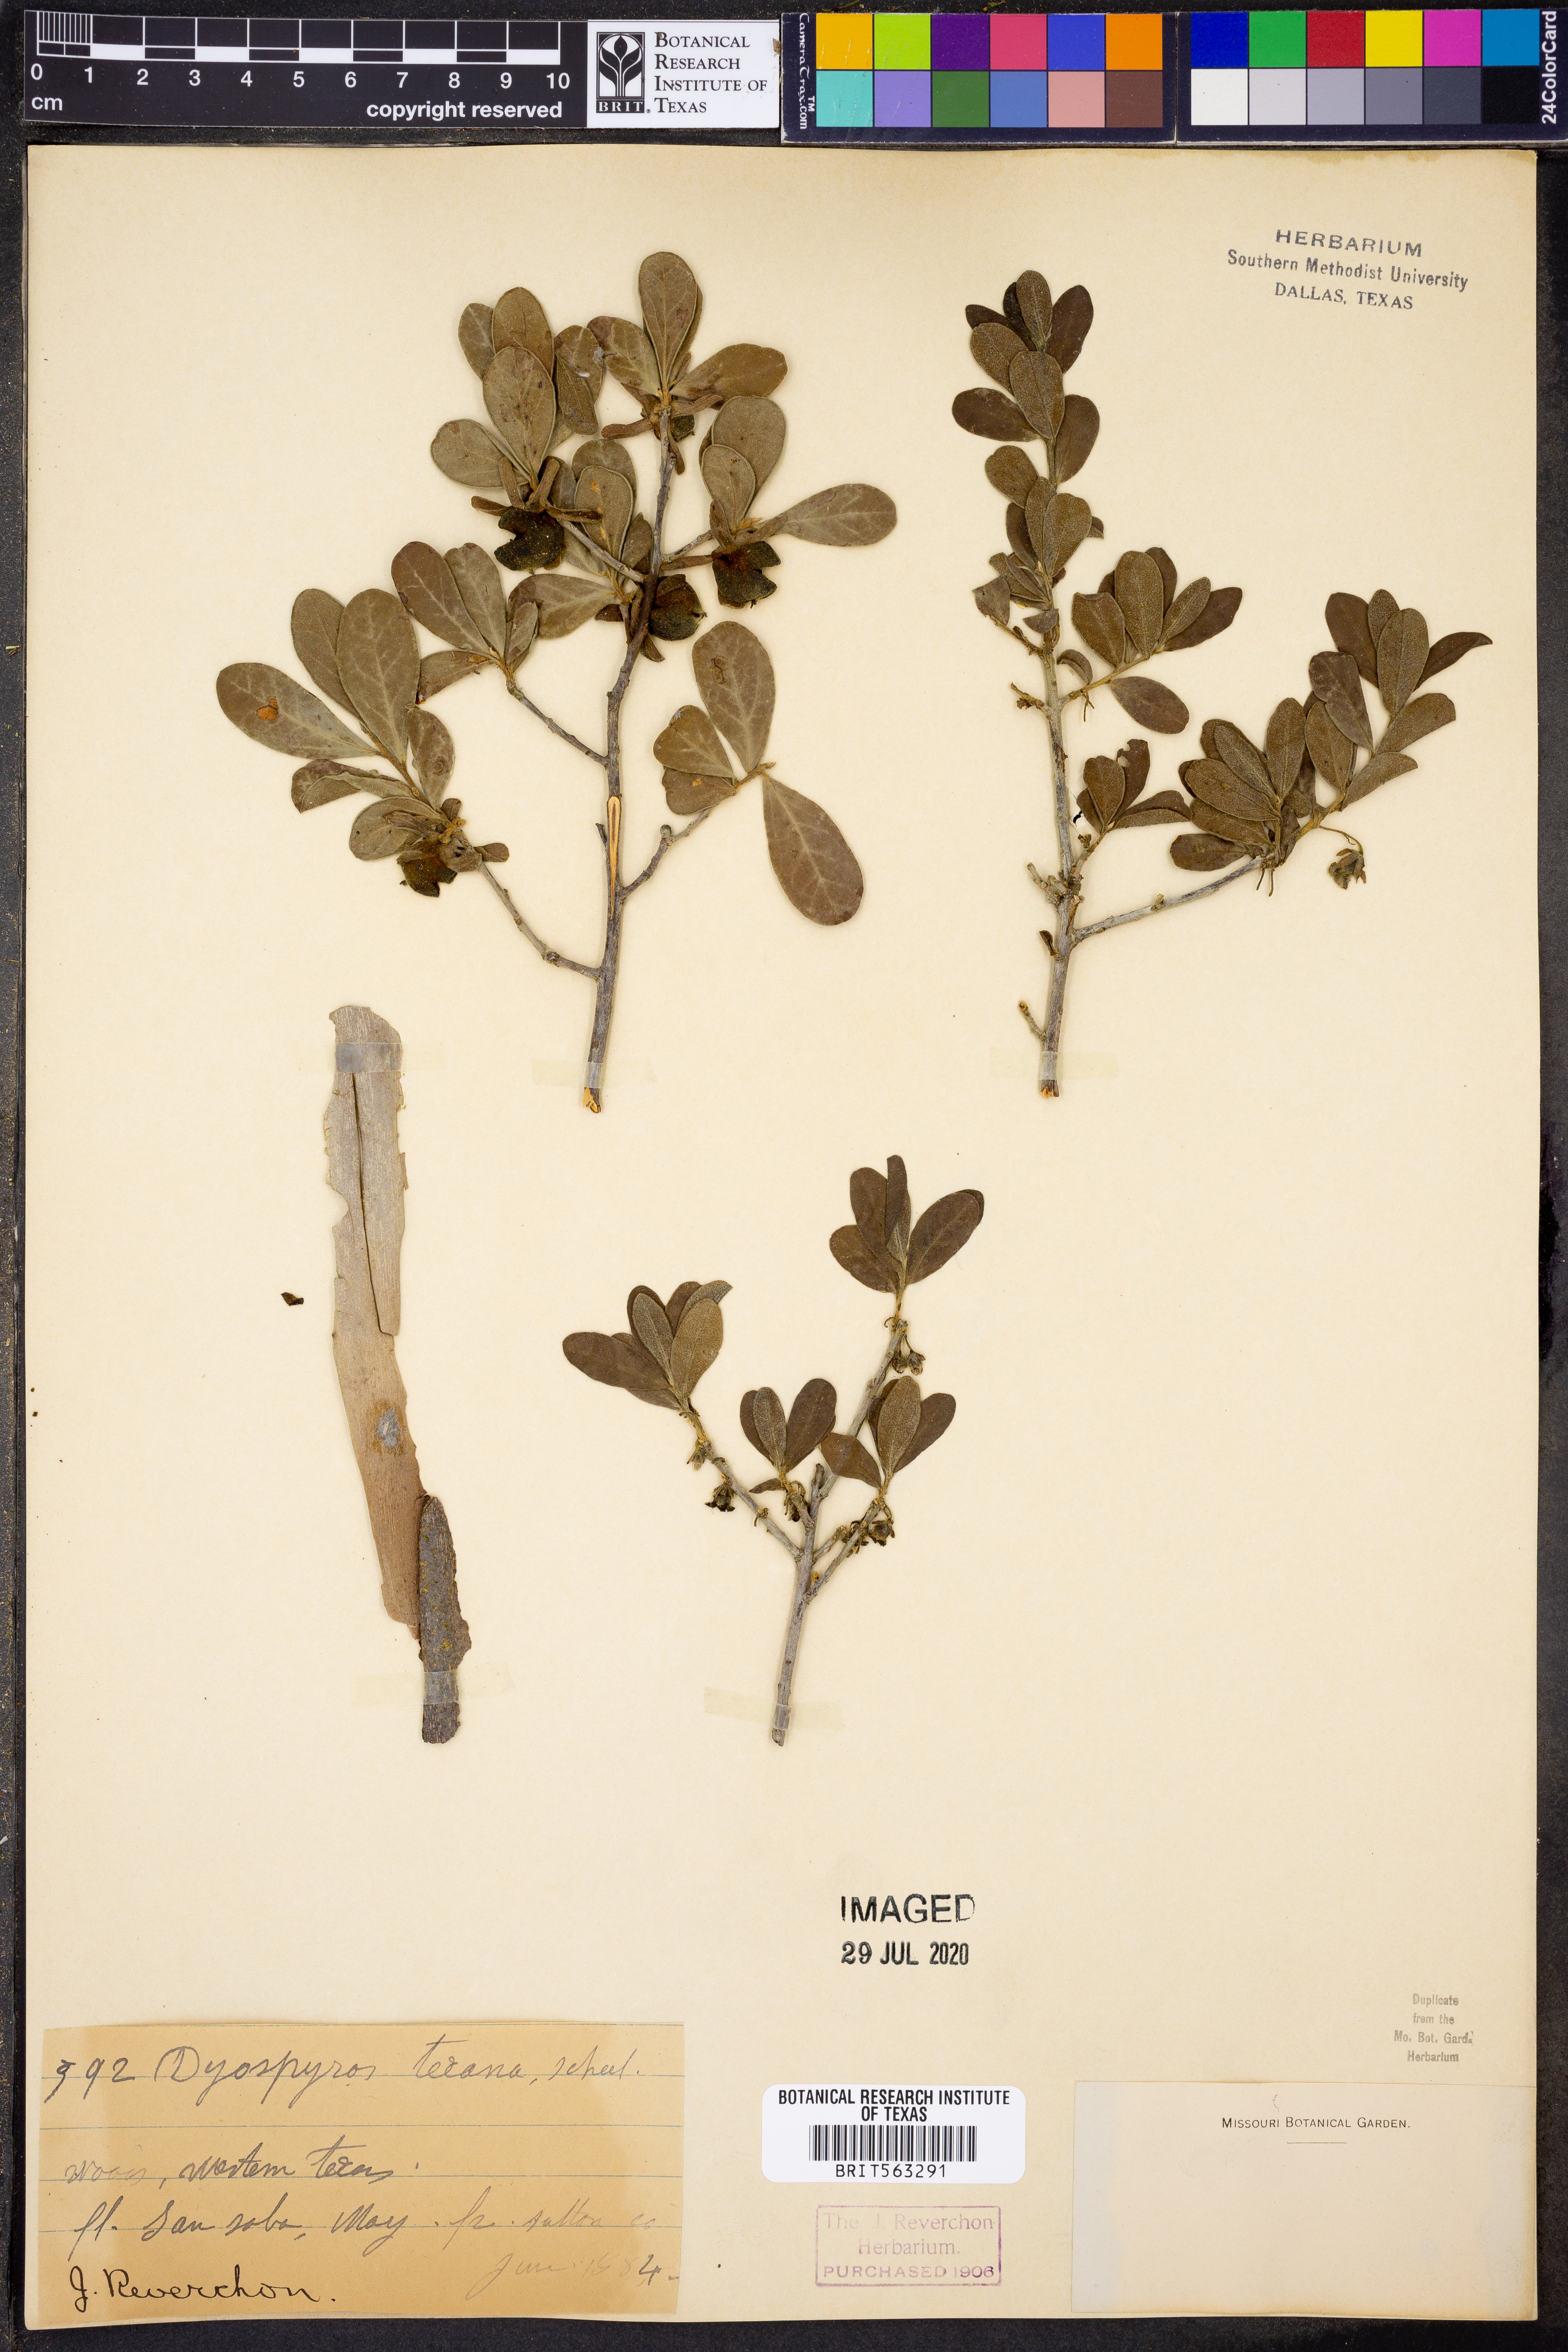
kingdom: Plantae
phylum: Tracheophyta
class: Magnoliopsida
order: Ericales
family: Ebenaceae
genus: Diospyros
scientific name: Diospyros texana
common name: Texas persimmon
